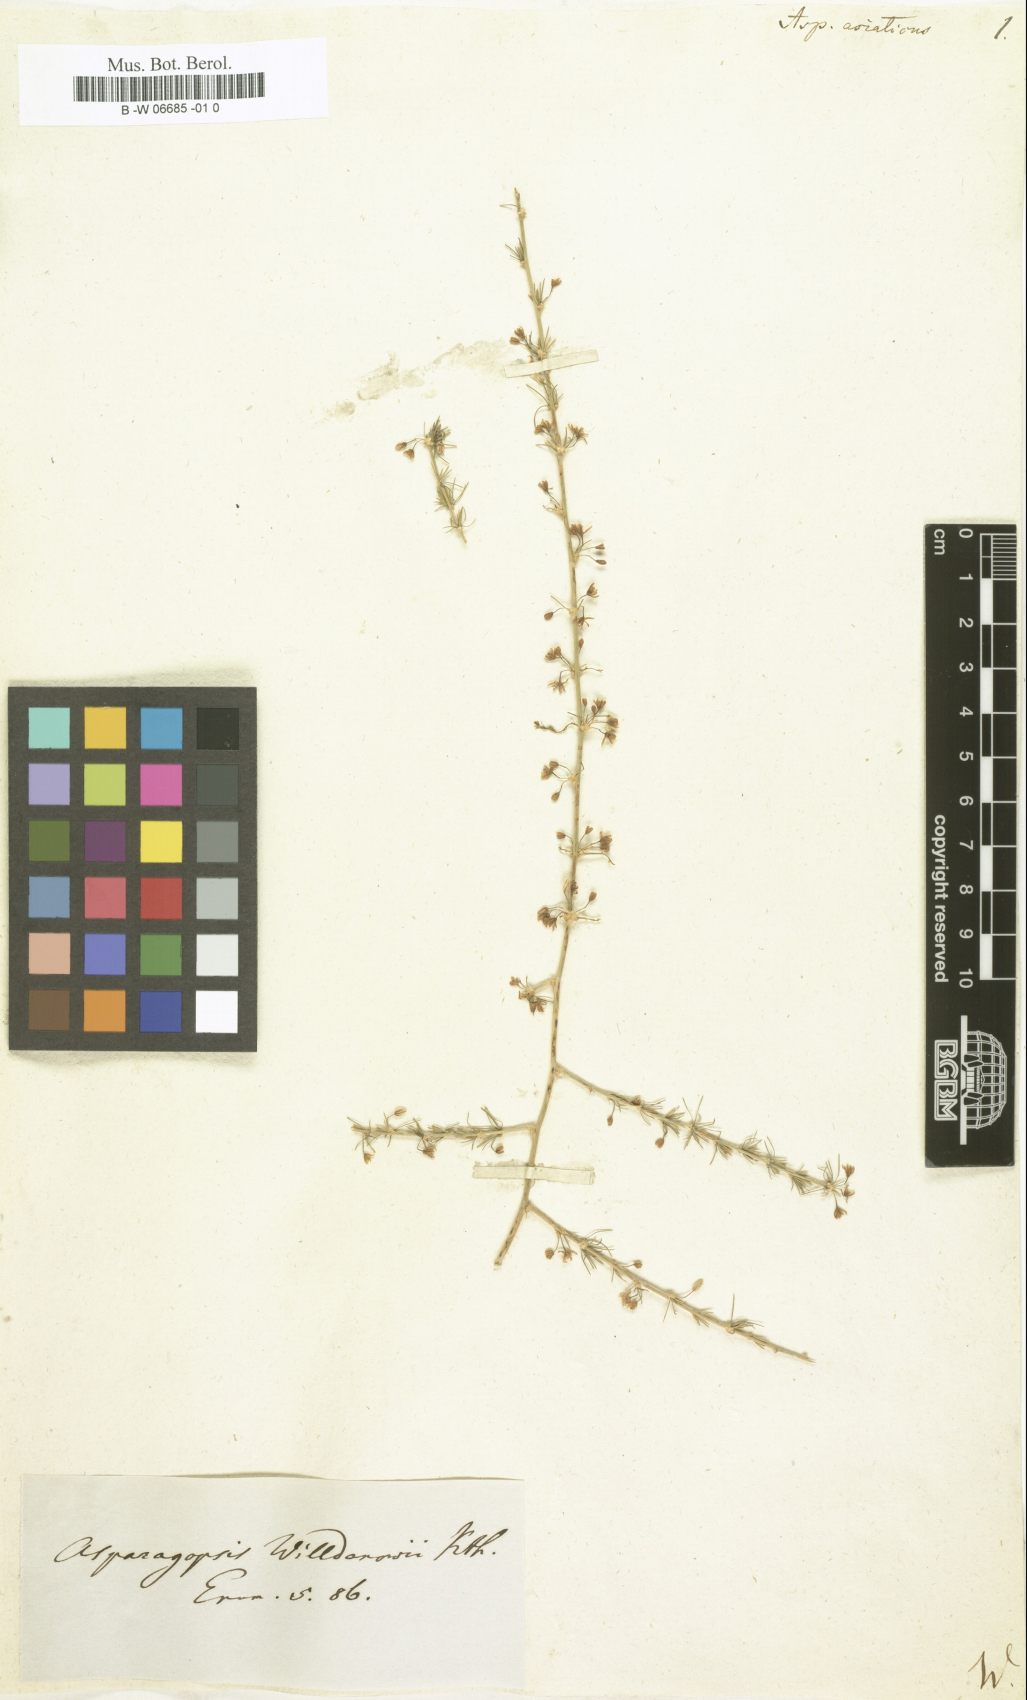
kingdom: Plantae
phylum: Tracheophyta
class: Liliopsida
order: Asparagales
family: Asparagaceae
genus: Asparagus
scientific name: Asparagus asiaticus
